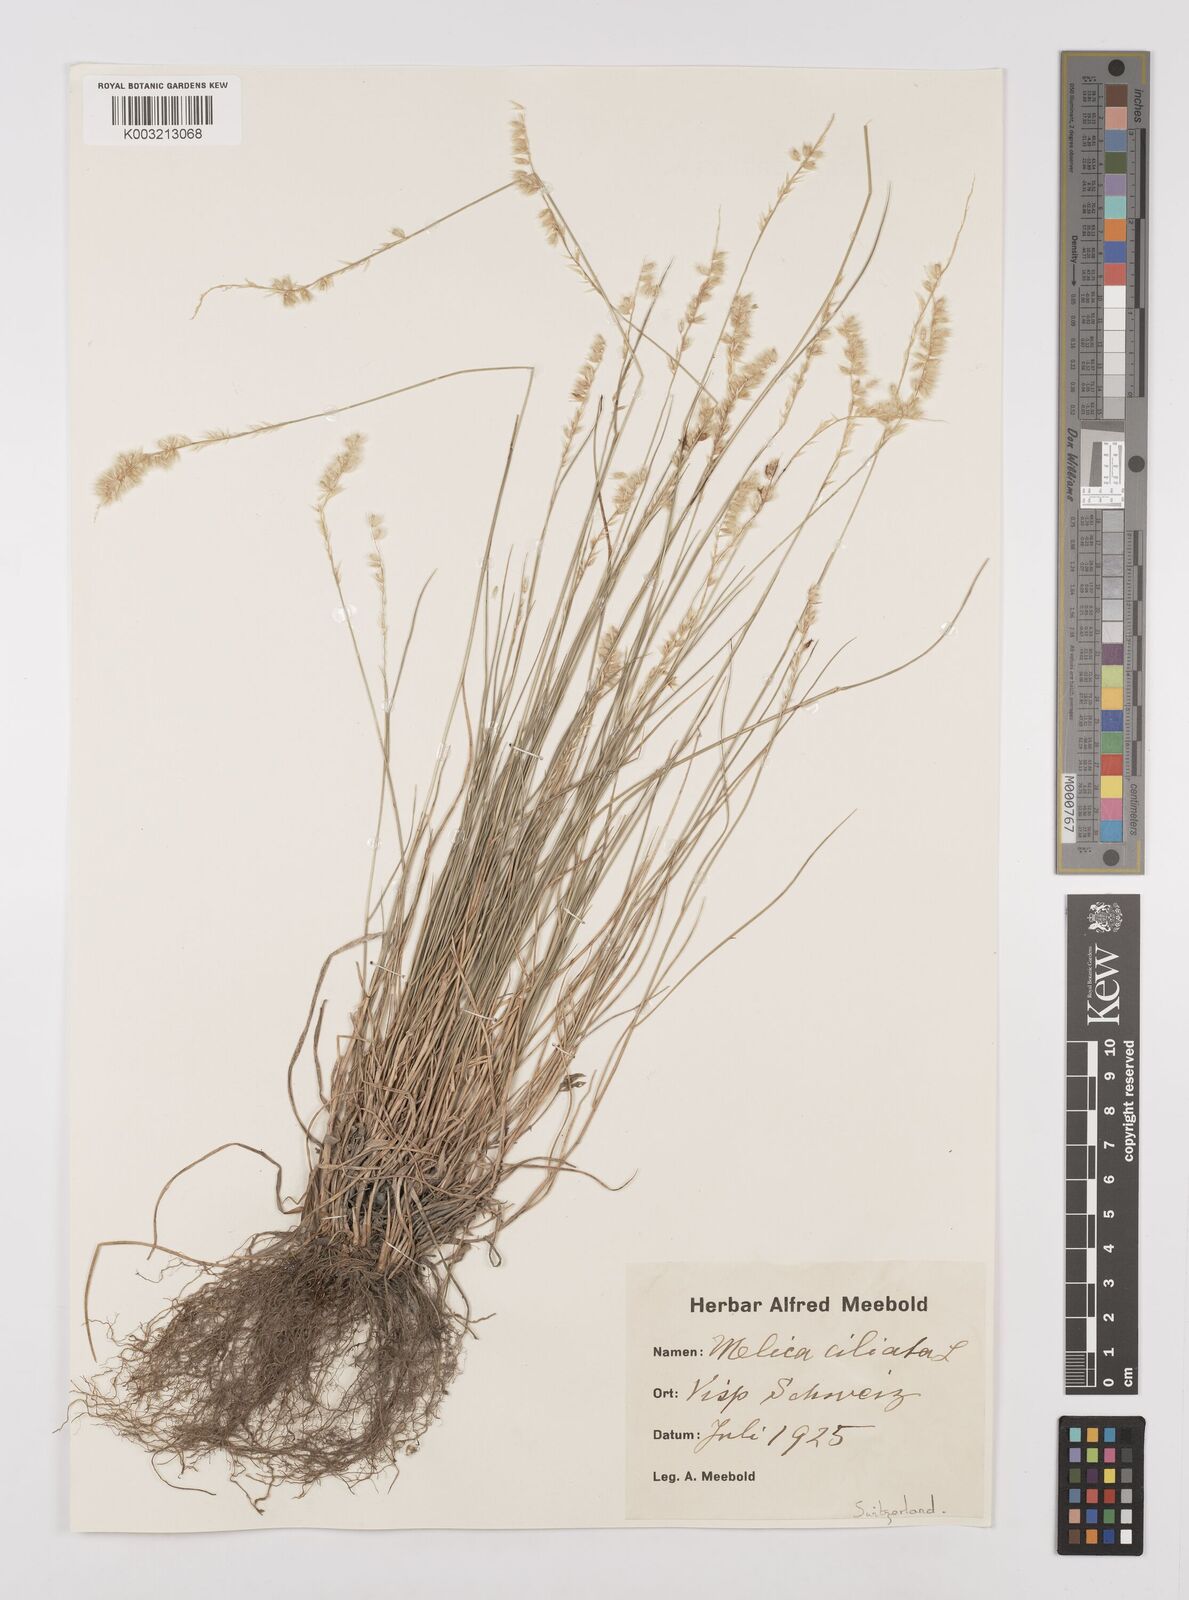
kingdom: Plantae
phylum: Tracheophyta
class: Liliopsida
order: Poales
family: Poaceae
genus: Melica
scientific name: Melica ciliata
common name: Hairy melicgrass
